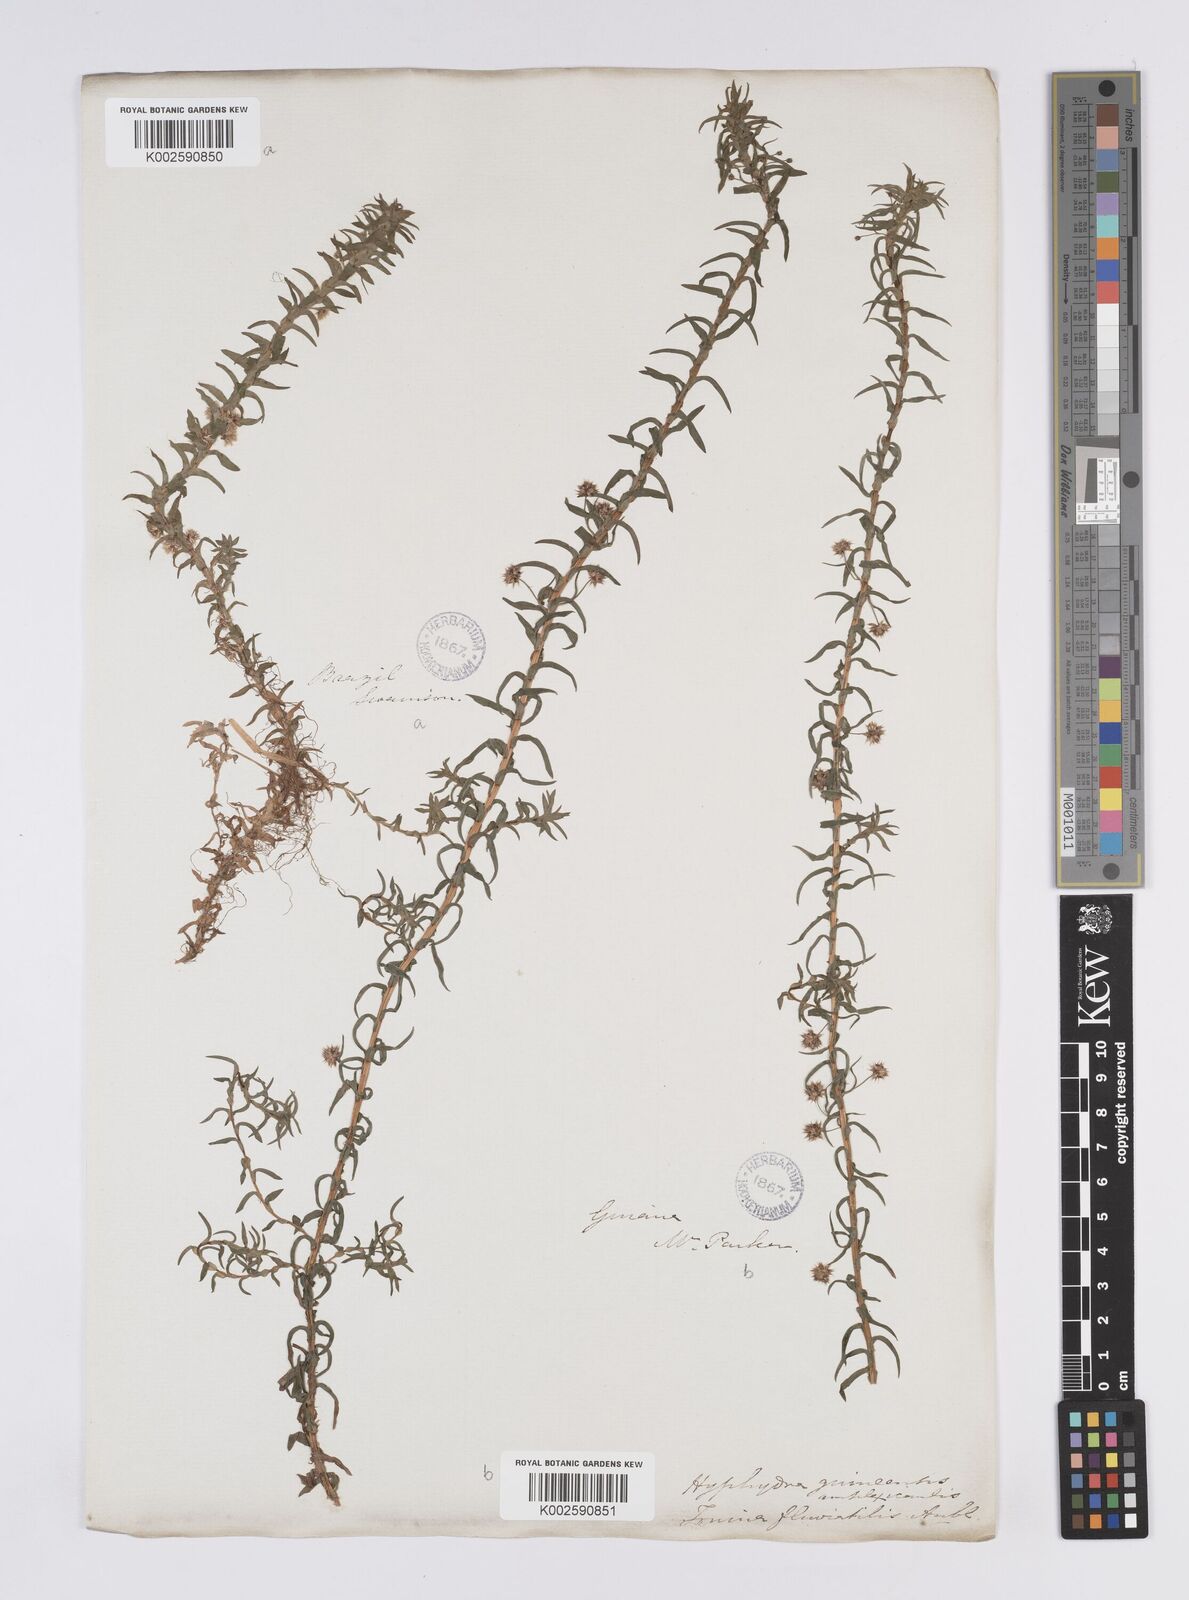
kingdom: Plantae
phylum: Tracheophyta
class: Liliopsida
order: Poales
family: Eriocaulaceae
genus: Paepalanthus
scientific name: Paepalanthus fluviatilis
